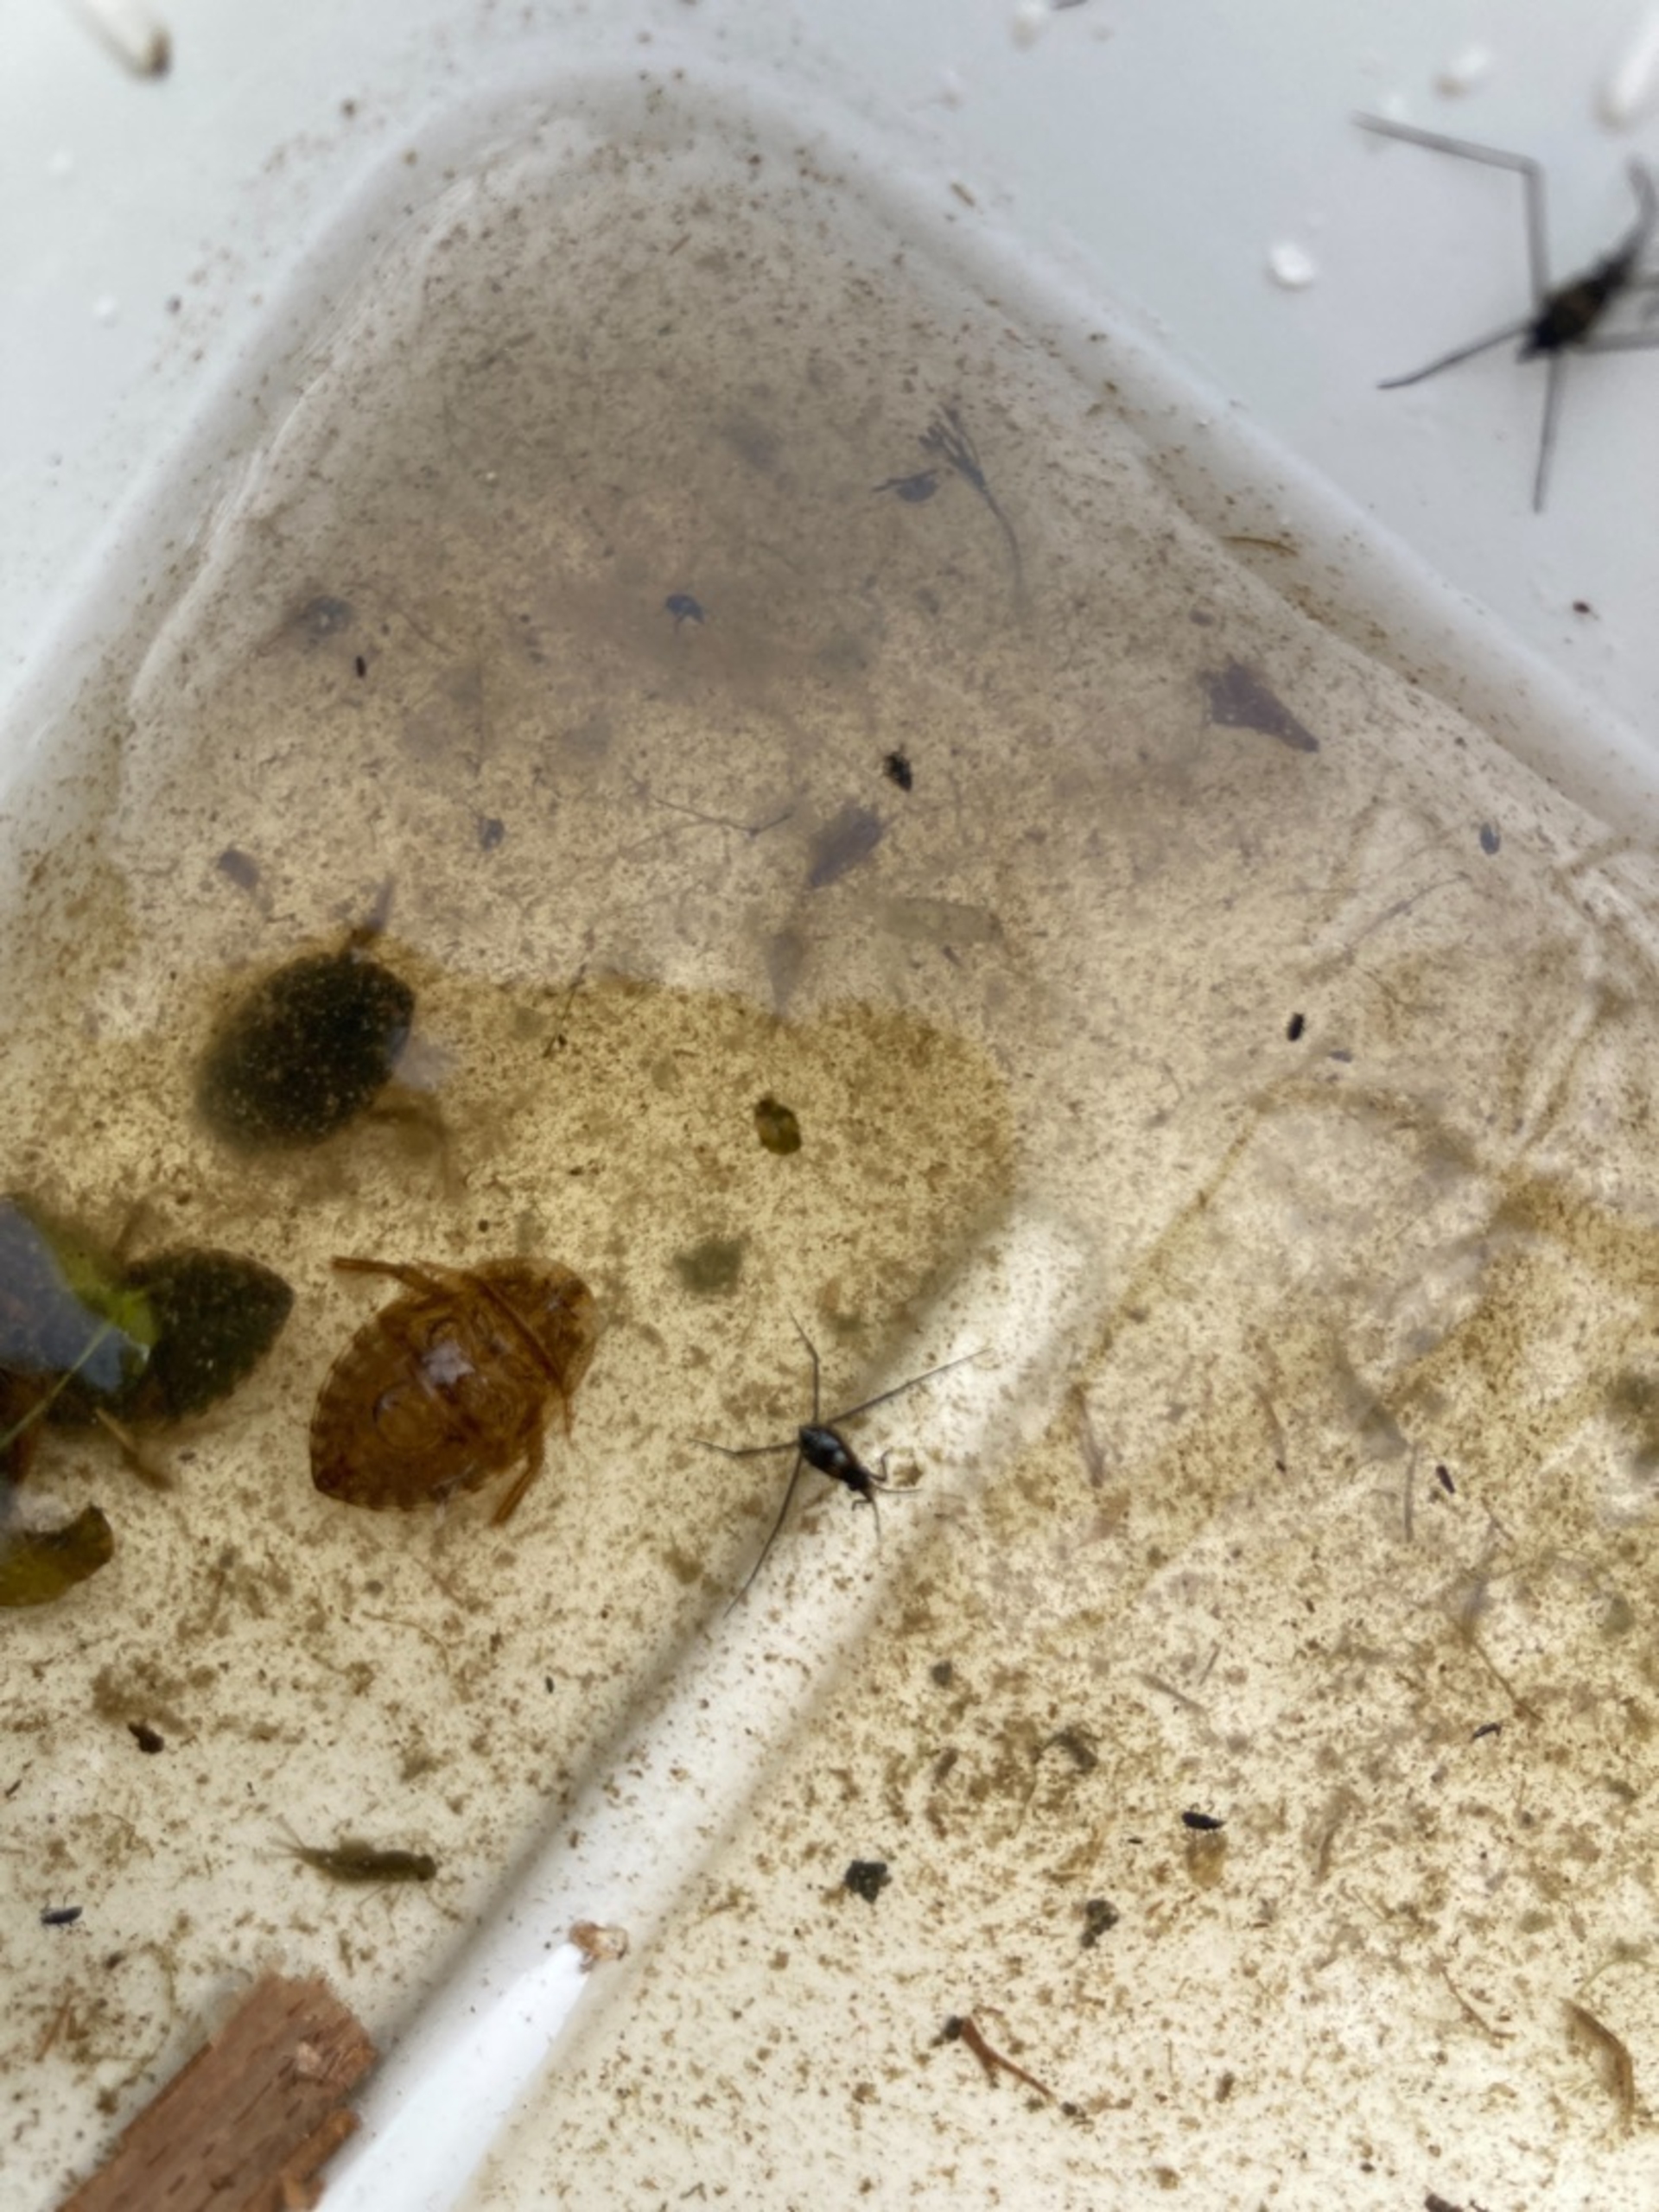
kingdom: Animalia
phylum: Arthropoda
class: Insecta
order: Hemiptera
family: Naucoridae
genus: Ilyocoris
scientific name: Ilyocoris cimicoides
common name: Vandrøver
